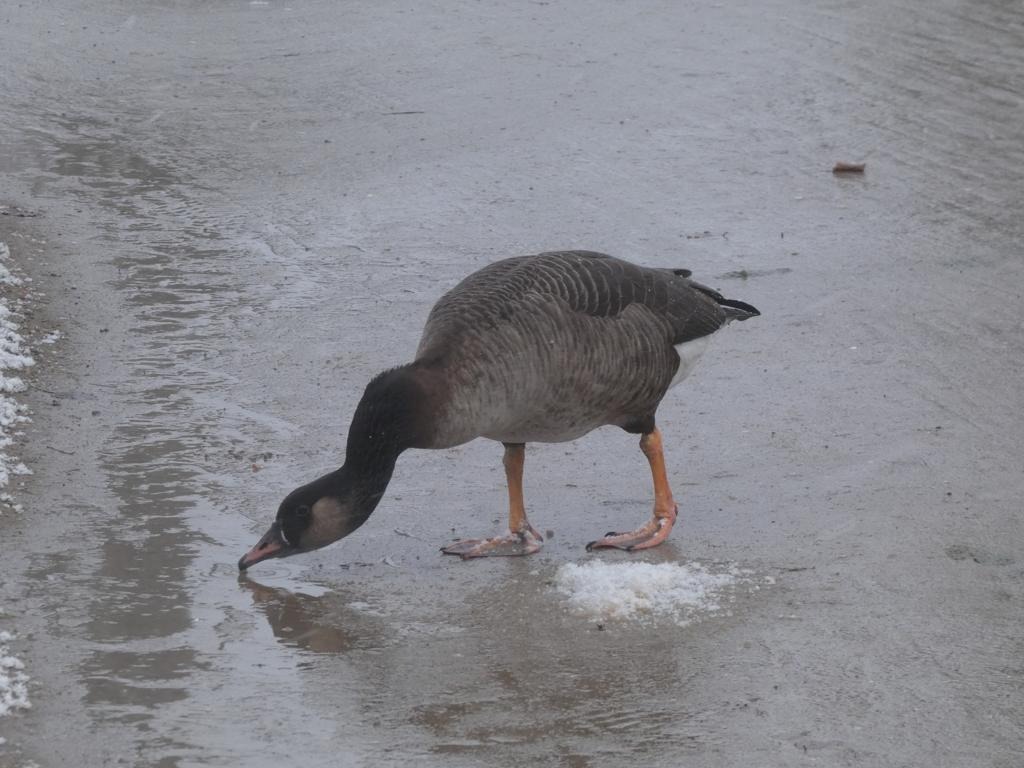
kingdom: Animalia
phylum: Chordata
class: Aves
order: Anseriformes
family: Anatidae
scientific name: Anatidae
